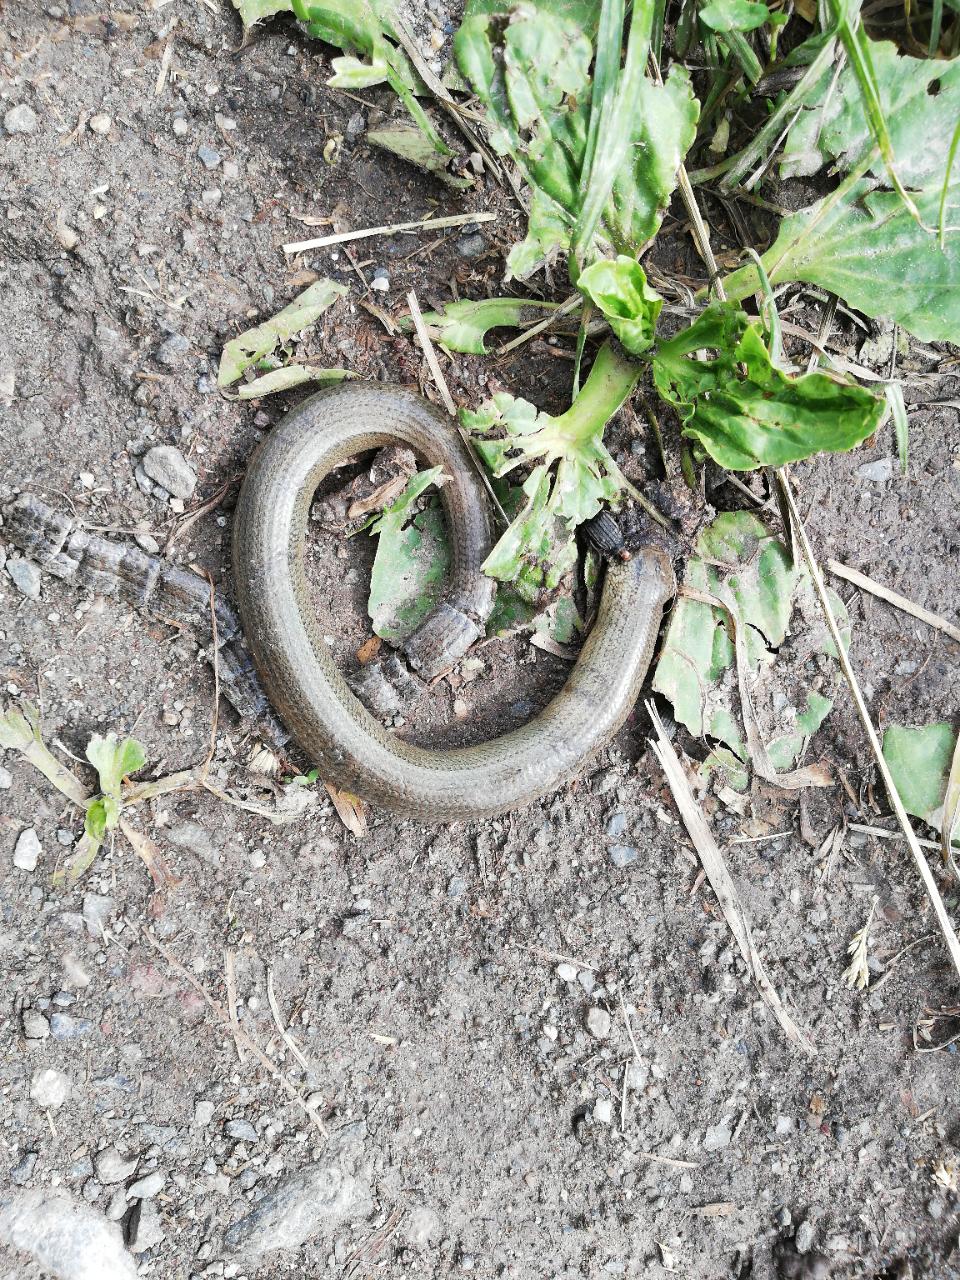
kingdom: Animalia
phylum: Chordata
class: Squamata
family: Anguidae
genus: Anguis
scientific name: Anguis fragilis
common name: Slow worm
